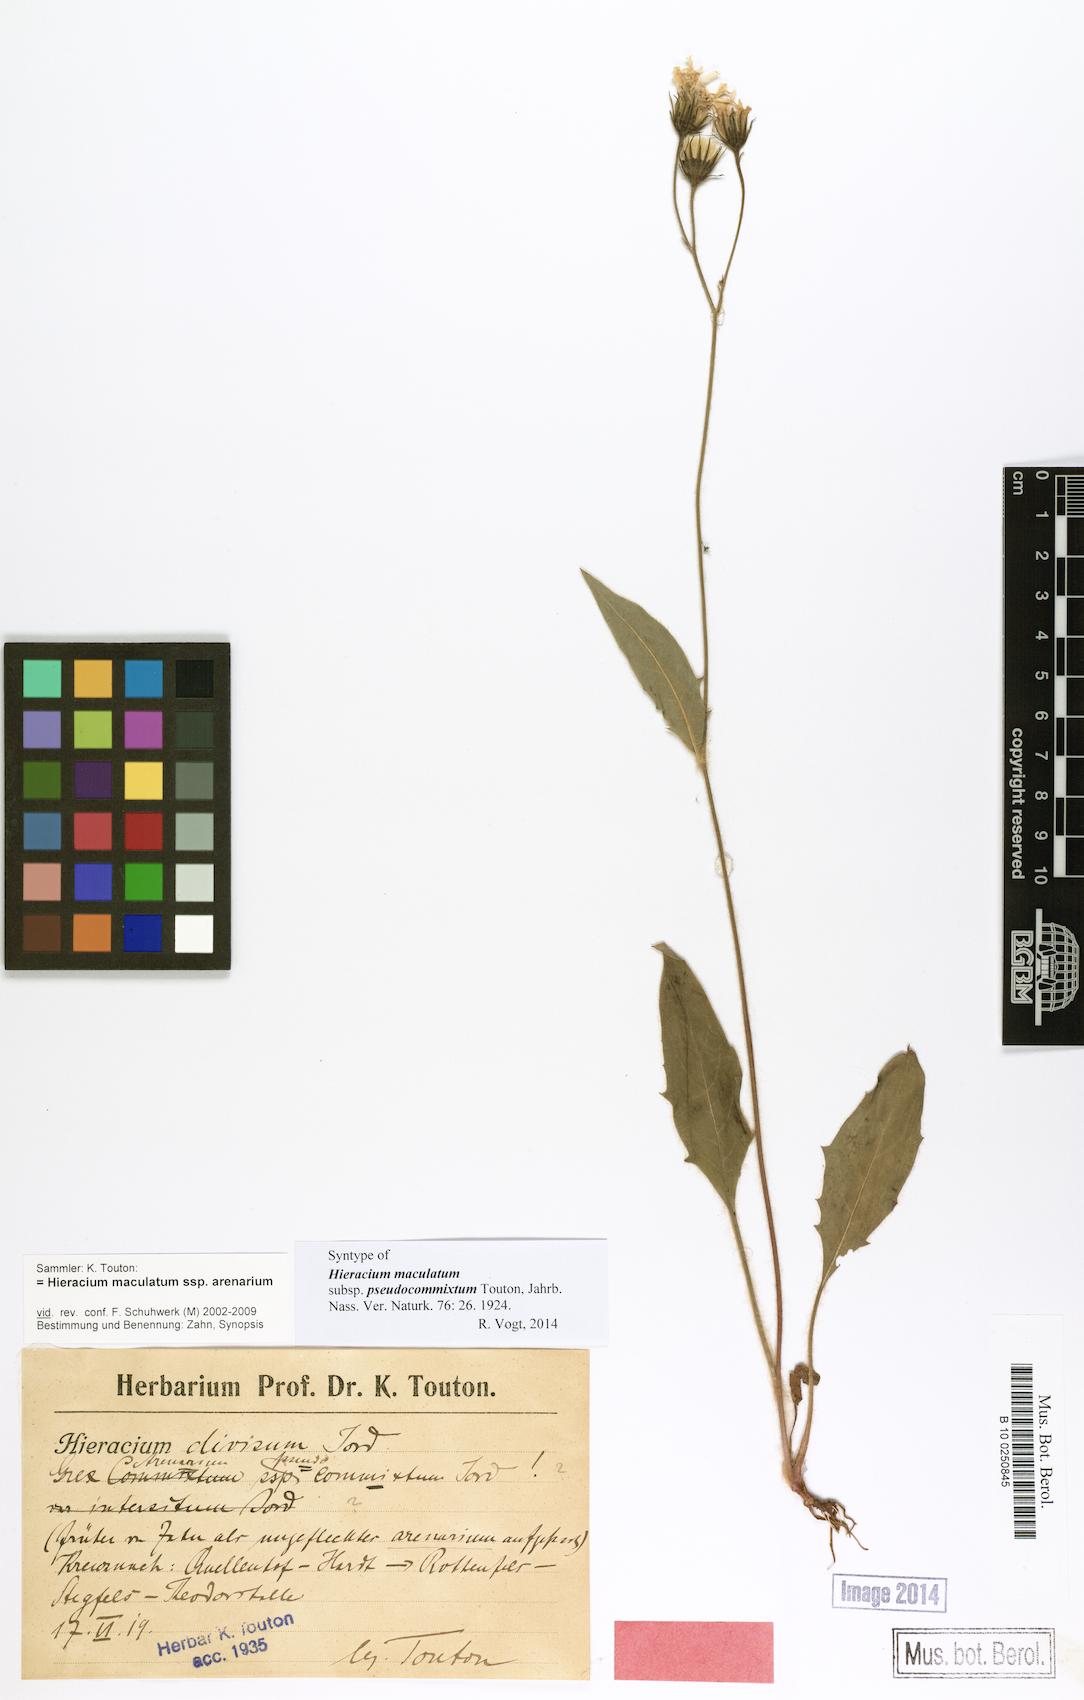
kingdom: Plantae
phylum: Tracheophyta
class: Magnoliopsida
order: Asterales
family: Asteraceae
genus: Hieracium
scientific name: Hieracium maculatum
